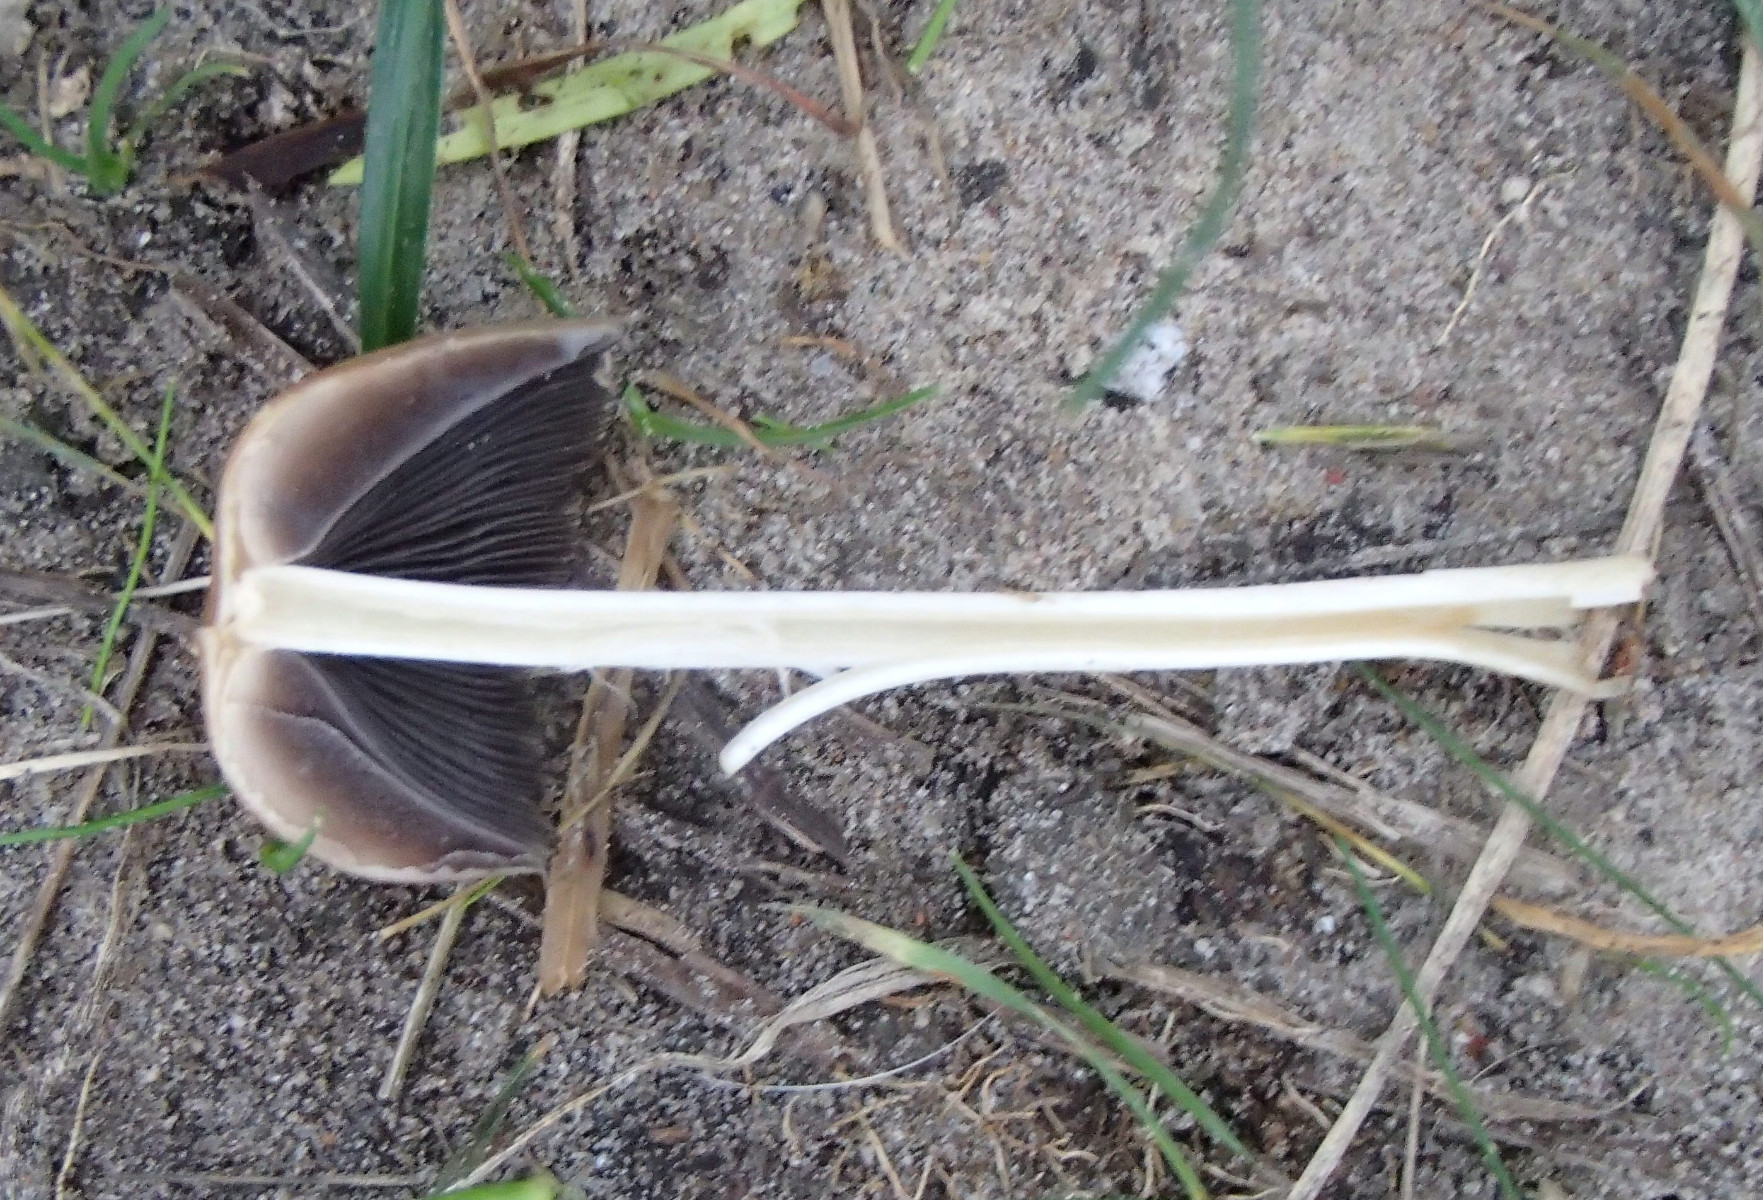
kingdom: Fungi
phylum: Basidiomycota
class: Agaricomycetes
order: Agaricales
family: Psathyrellaceae
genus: Coprinellus
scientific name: Coprinellus
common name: blækhat
